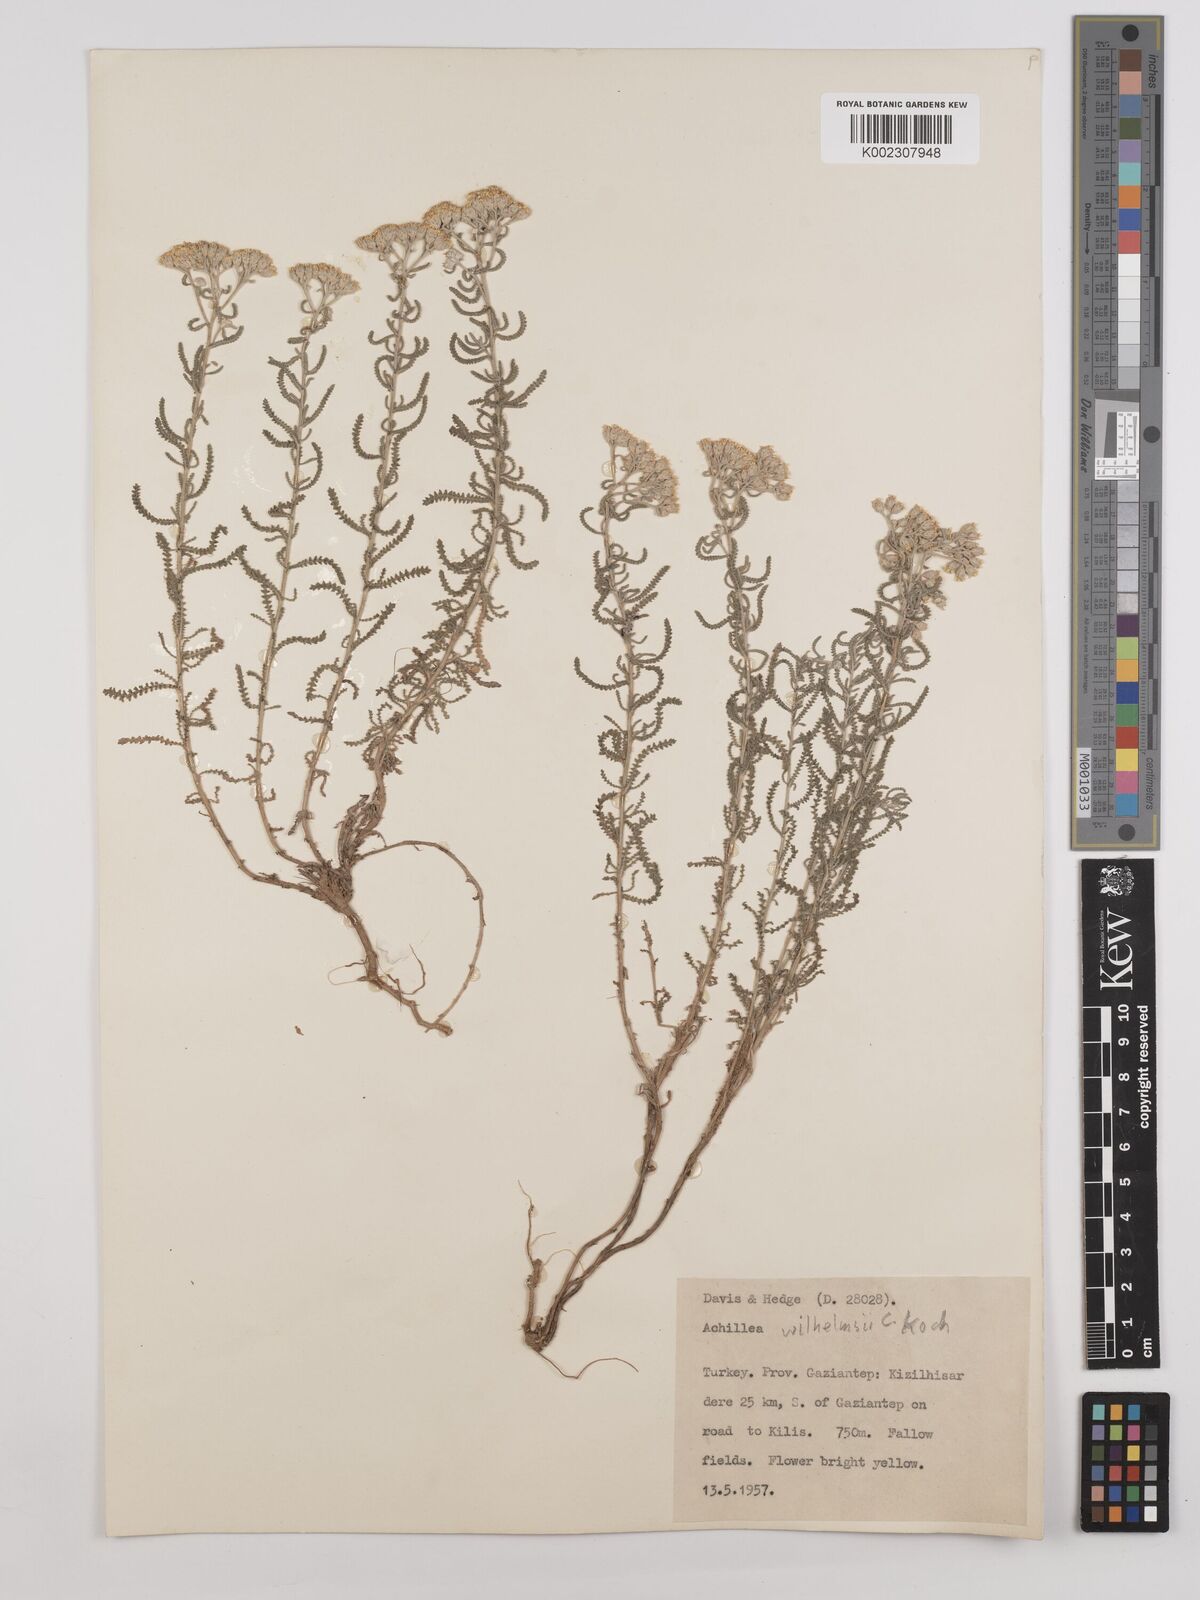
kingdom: Plantae
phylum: Tracheophyta
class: Magnoliopsida
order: Asterales
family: Asteraceae
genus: Achillea
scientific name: Achillea tenuifolia
